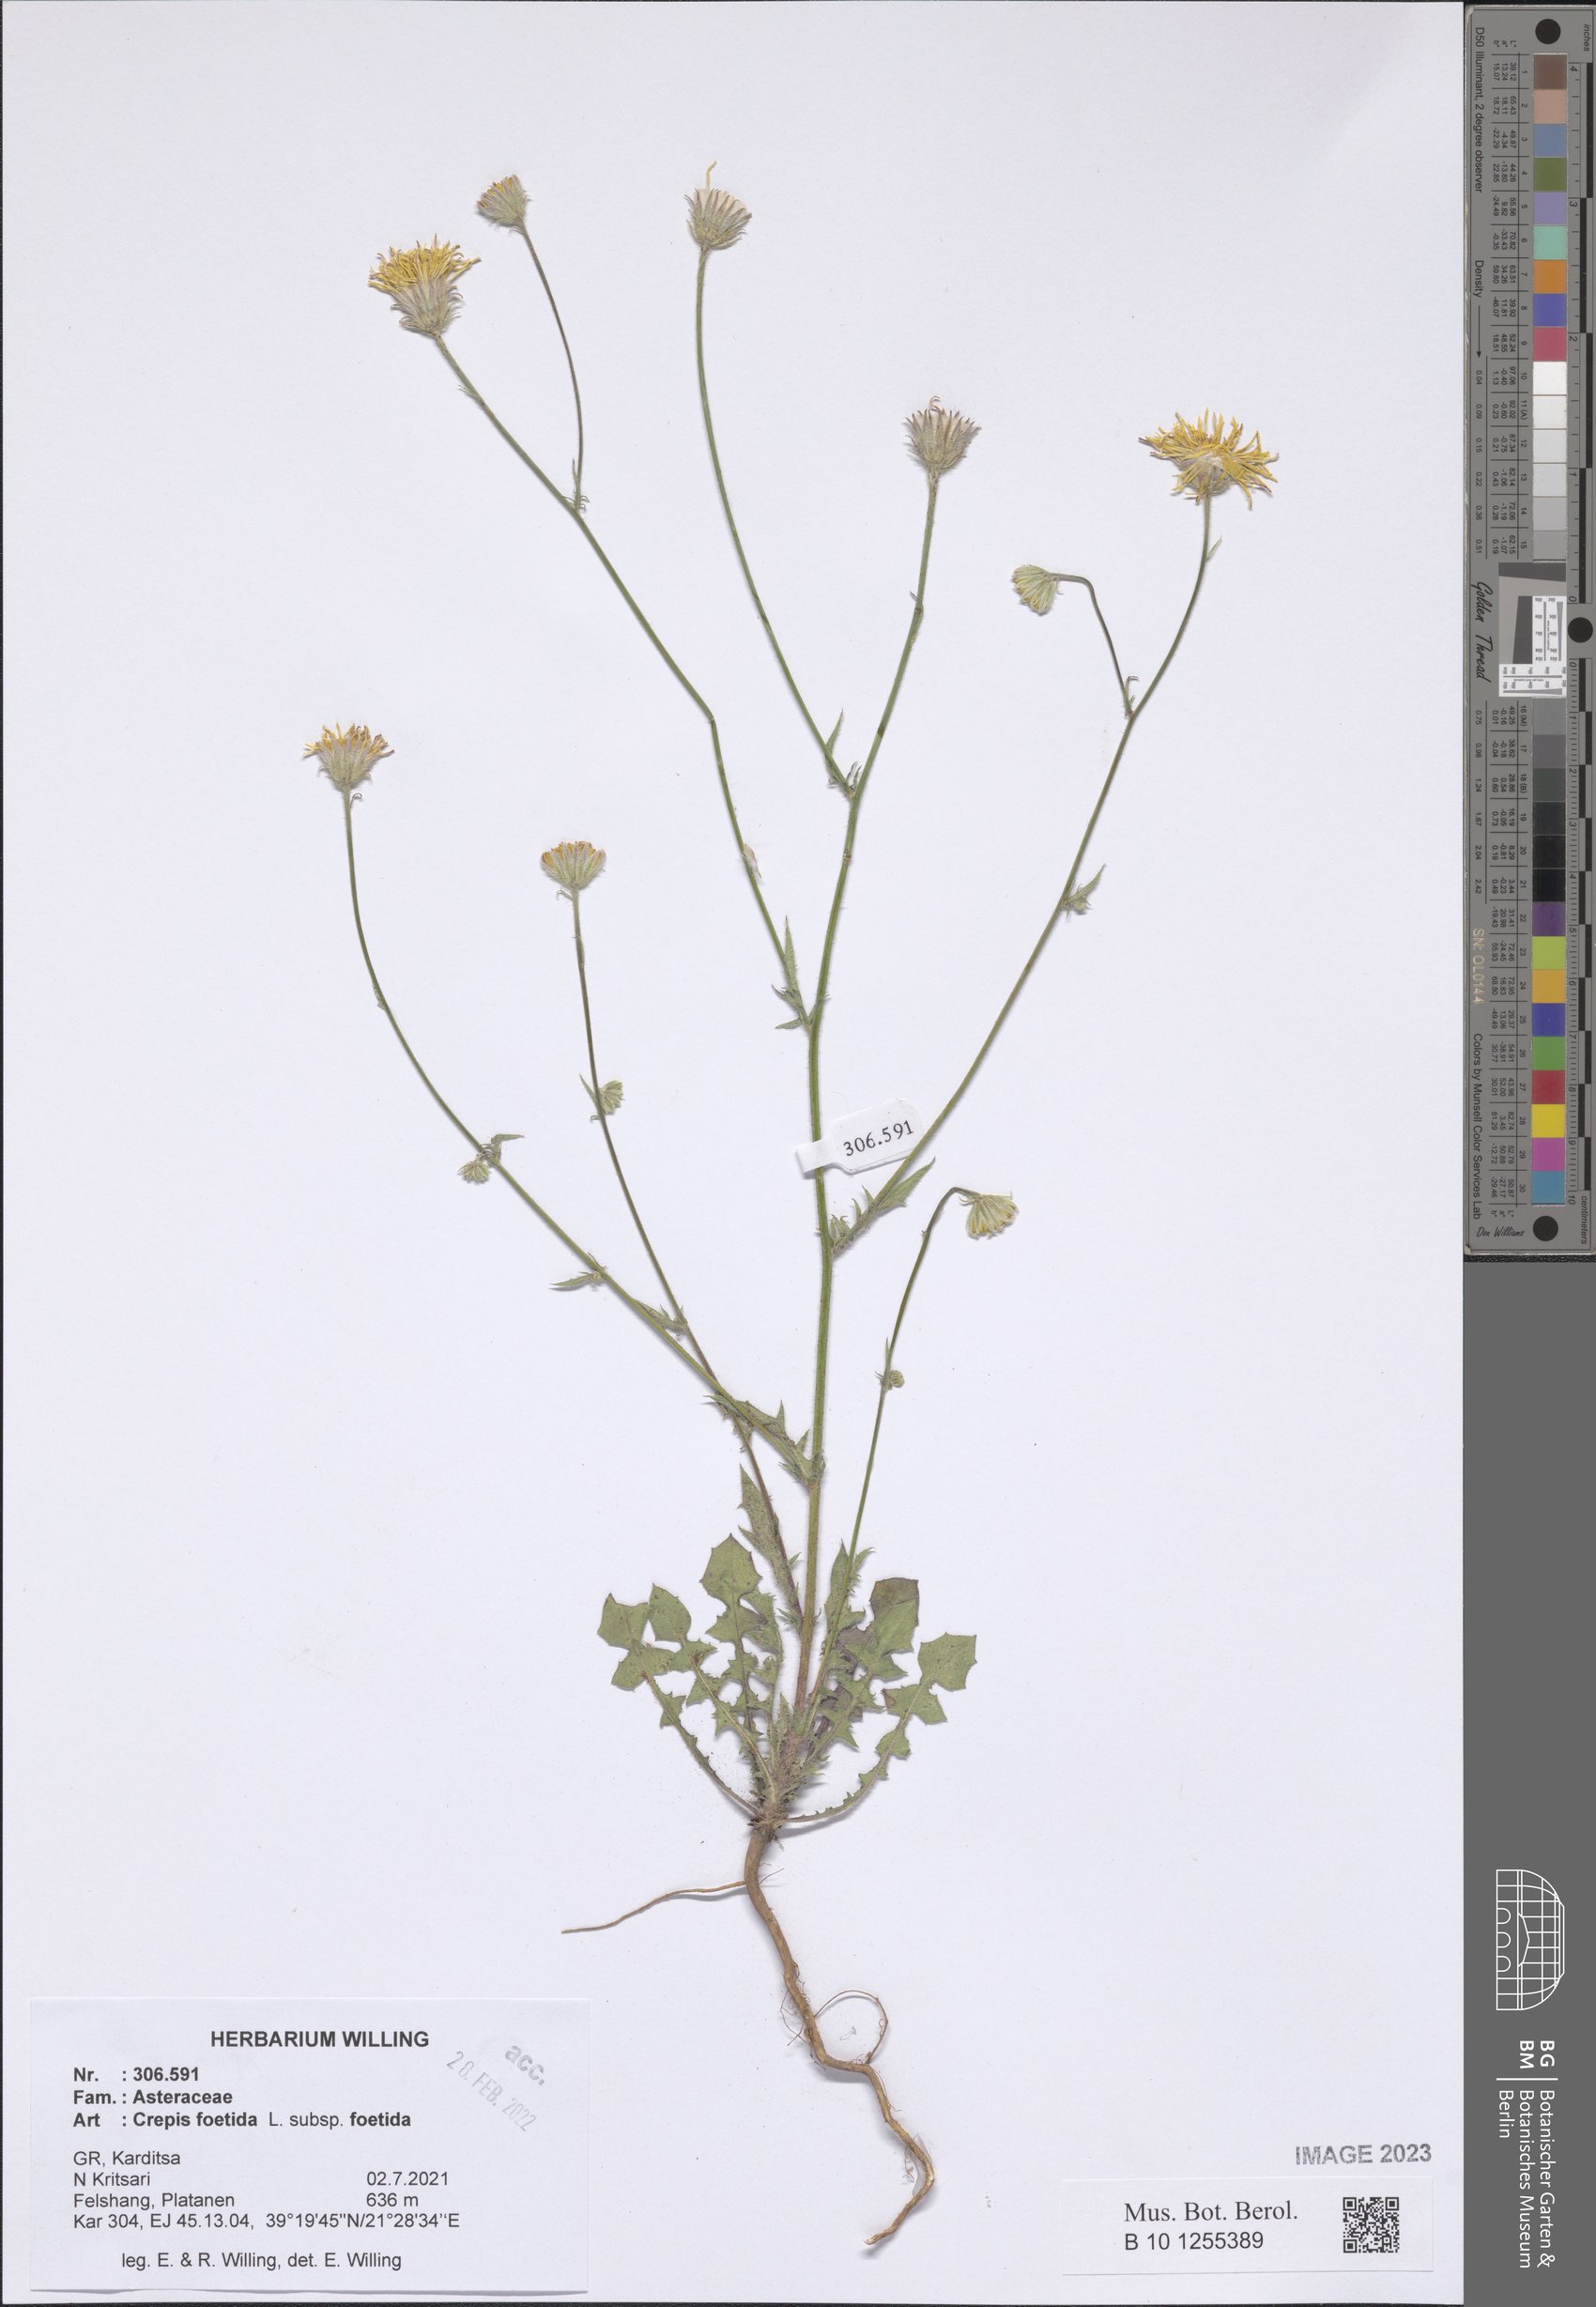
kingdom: Plantae
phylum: Tracheophyta
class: Magnoliopsida
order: Asterales
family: Asteraceae
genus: Crepis
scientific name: Crepis foetida
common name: Stinking hawk's-beard
